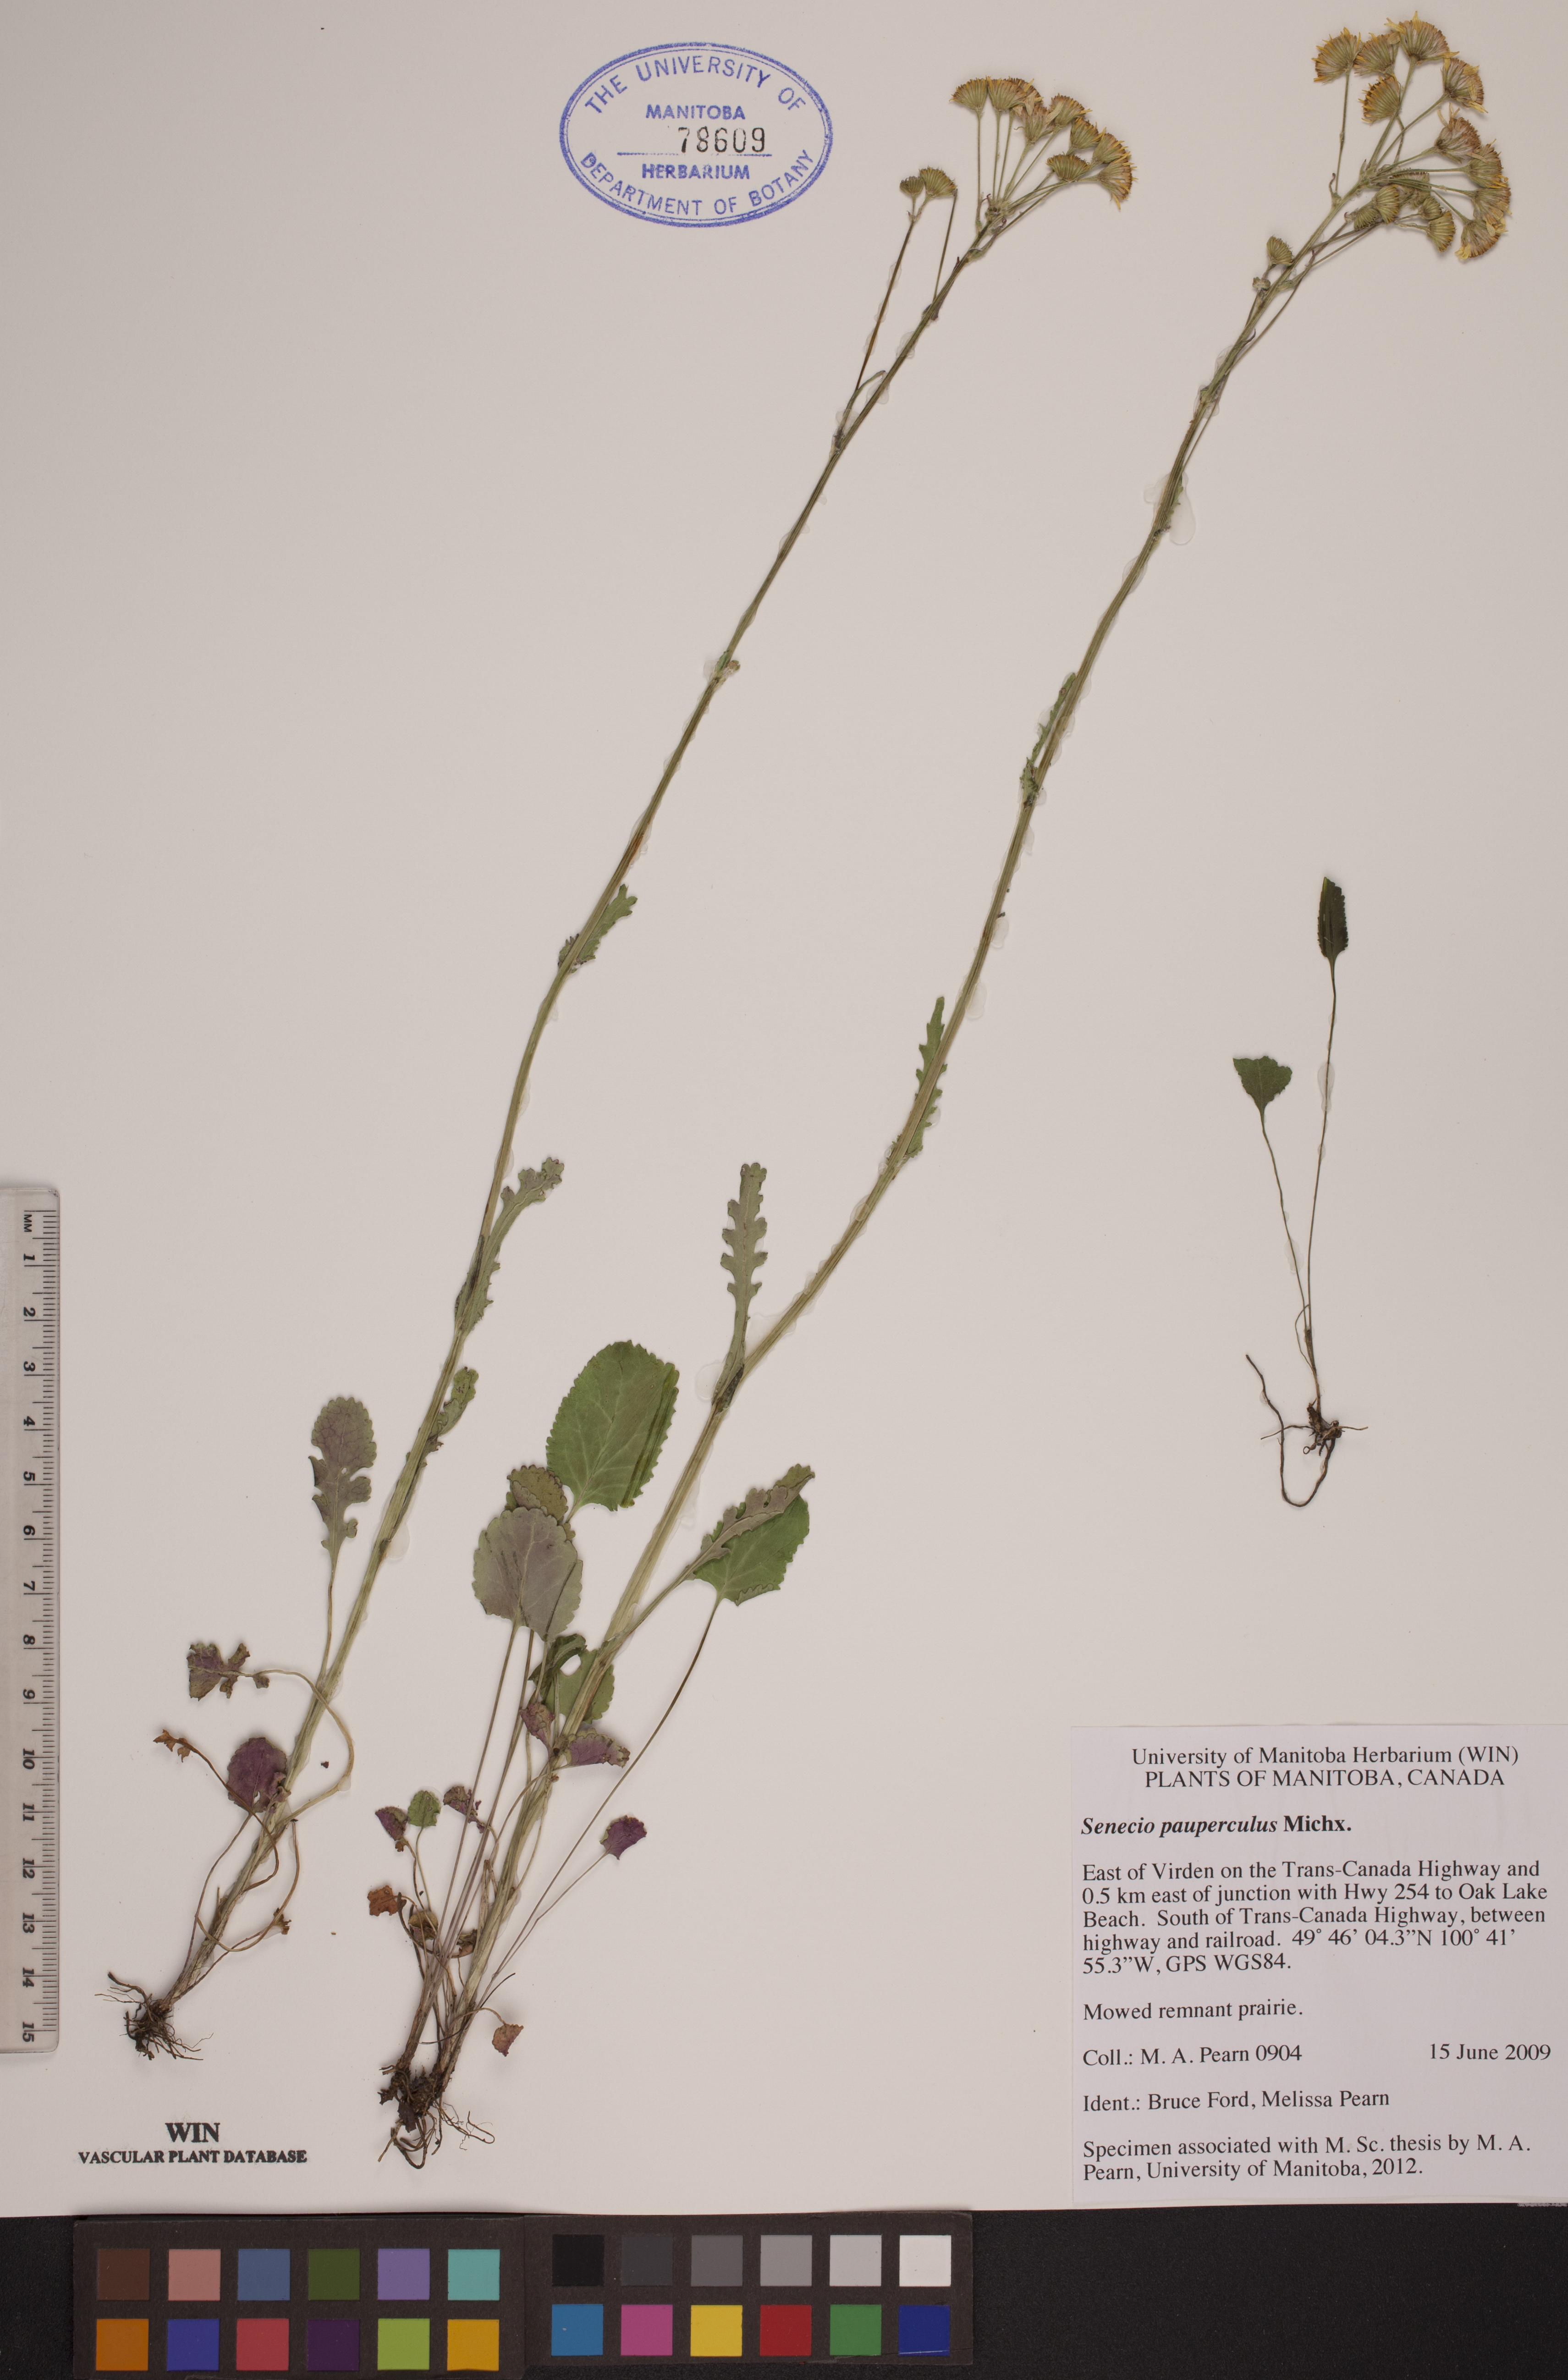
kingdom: Plantae
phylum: Tracheophyta
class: Magnoliopsida
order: Asterales
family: Asteraceae
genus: Packera
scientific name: Packera paupercula
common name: Balsam groundsel
